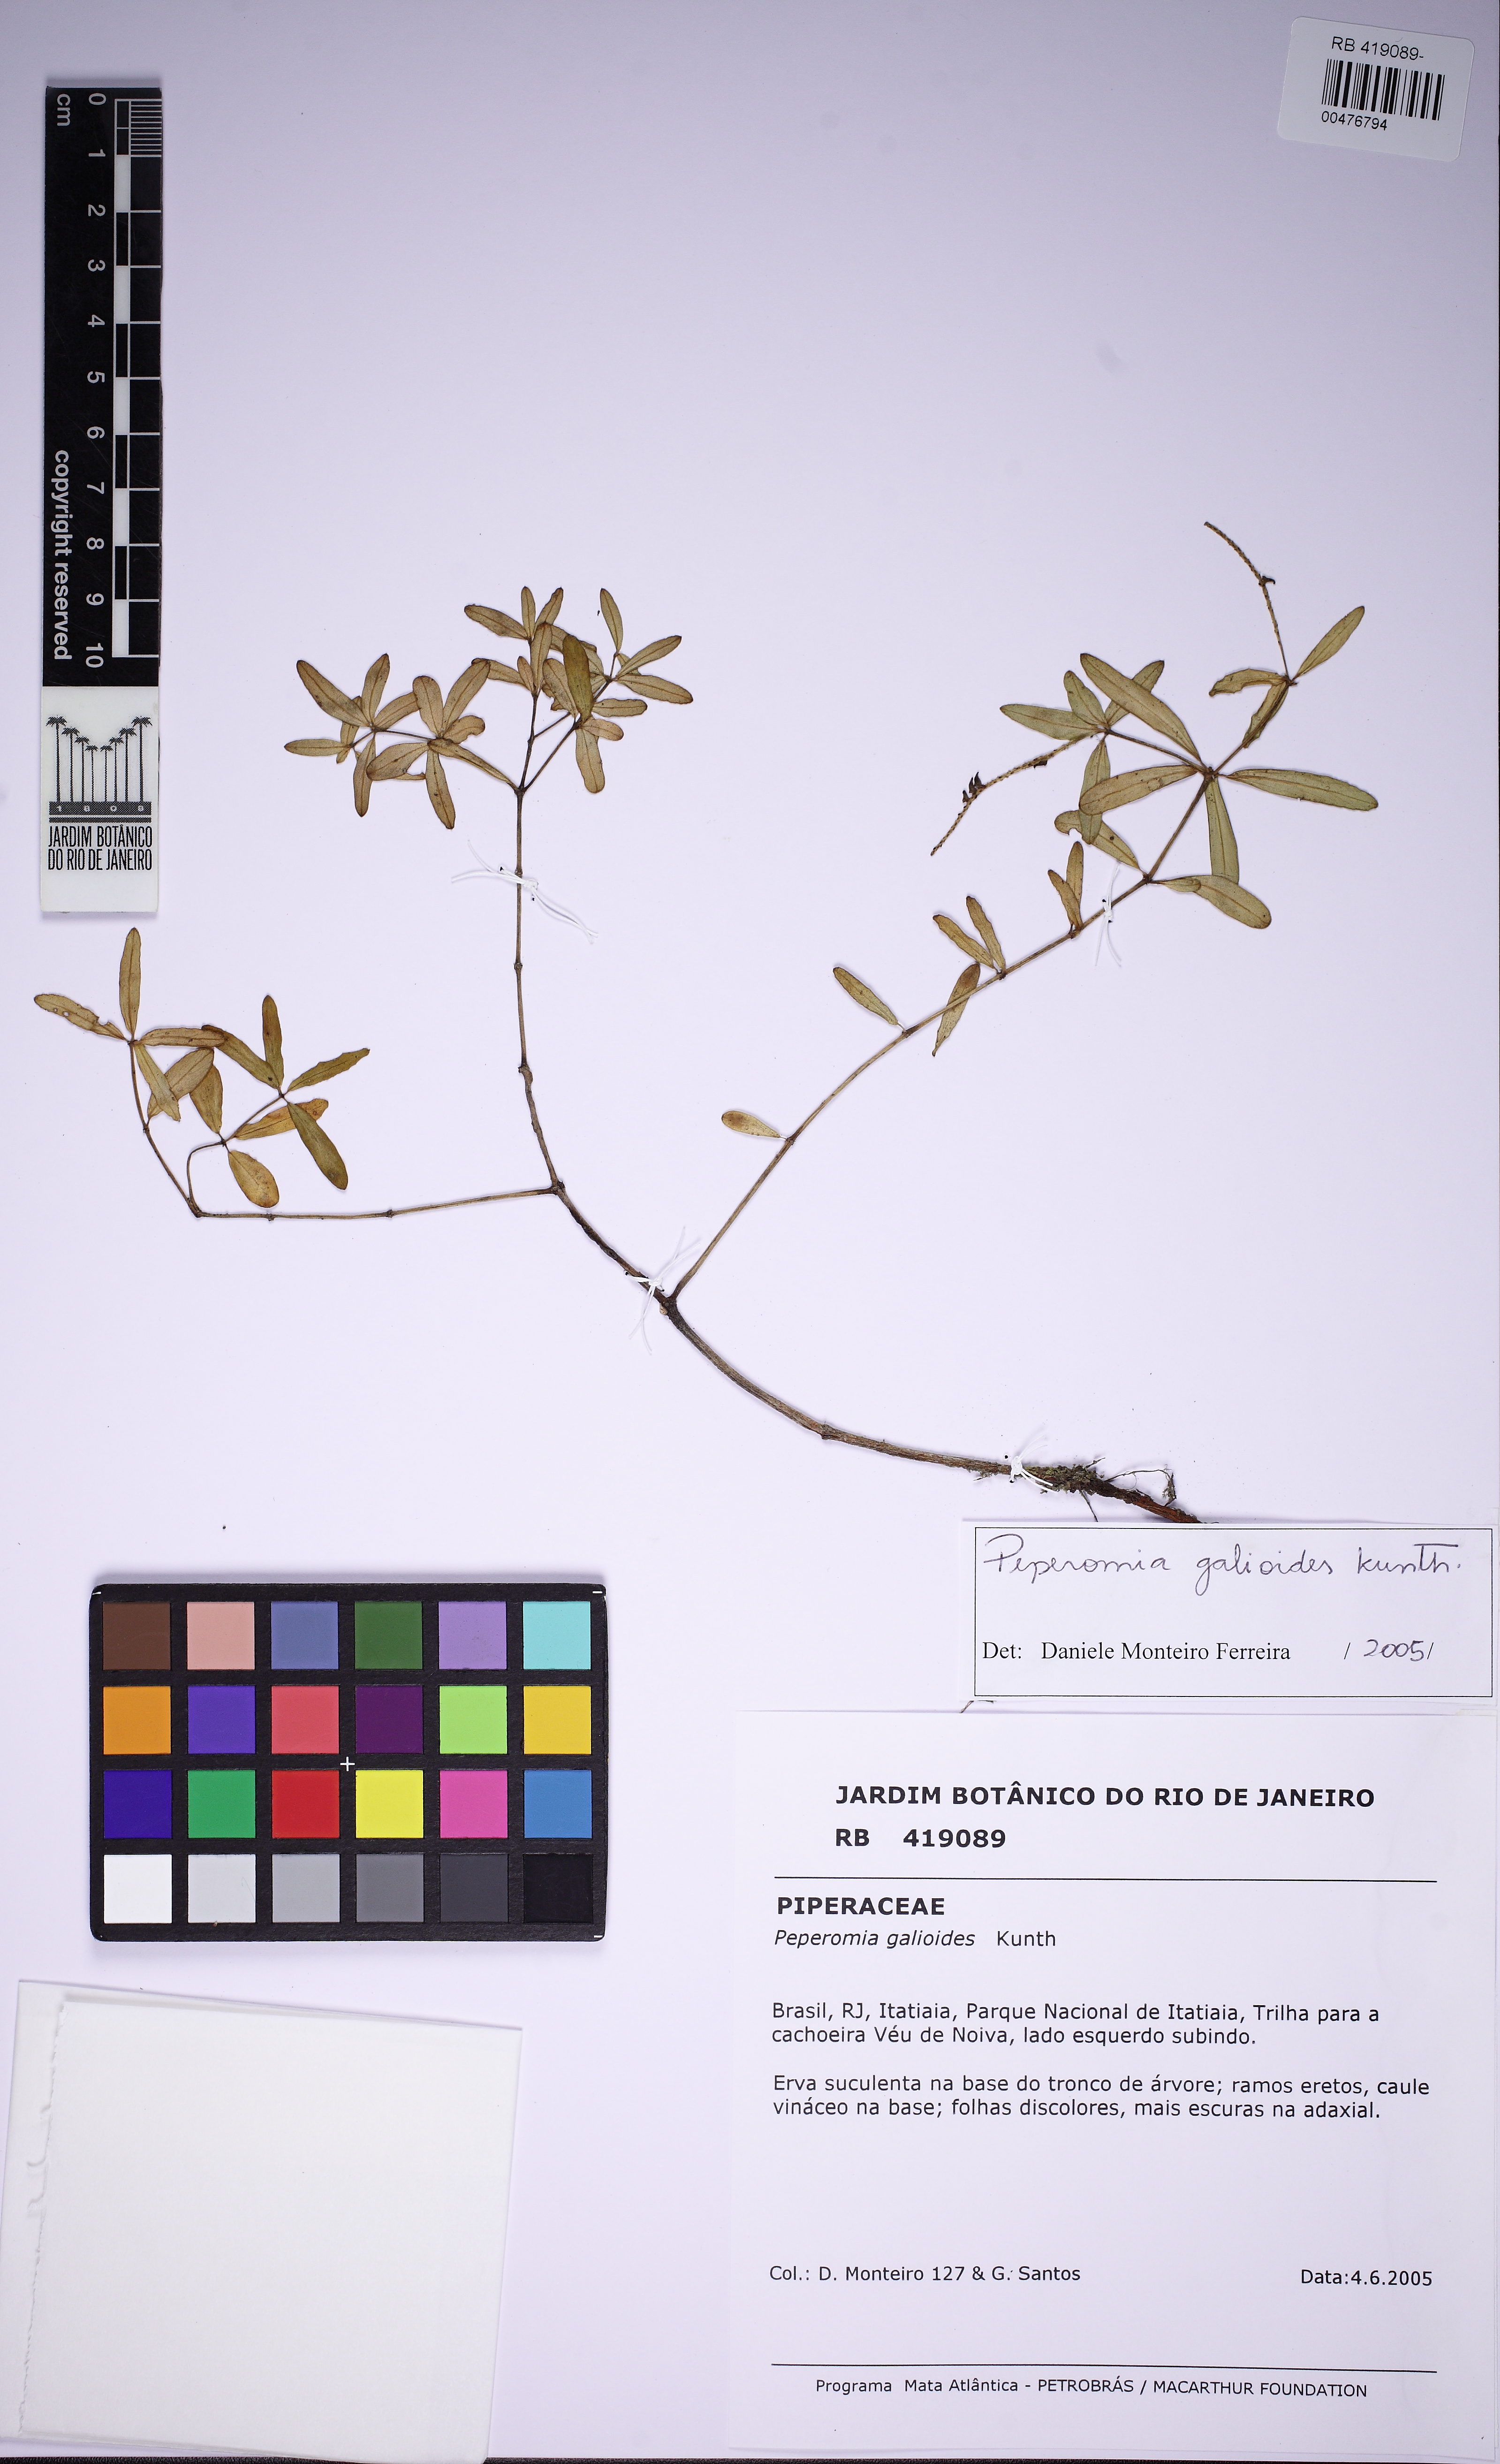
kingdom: Plantae
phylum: Tracheophyta
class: Magnoliopsida
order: Piperales
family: Piperaceae
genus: Peperomia
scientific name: Peperomia galioides
